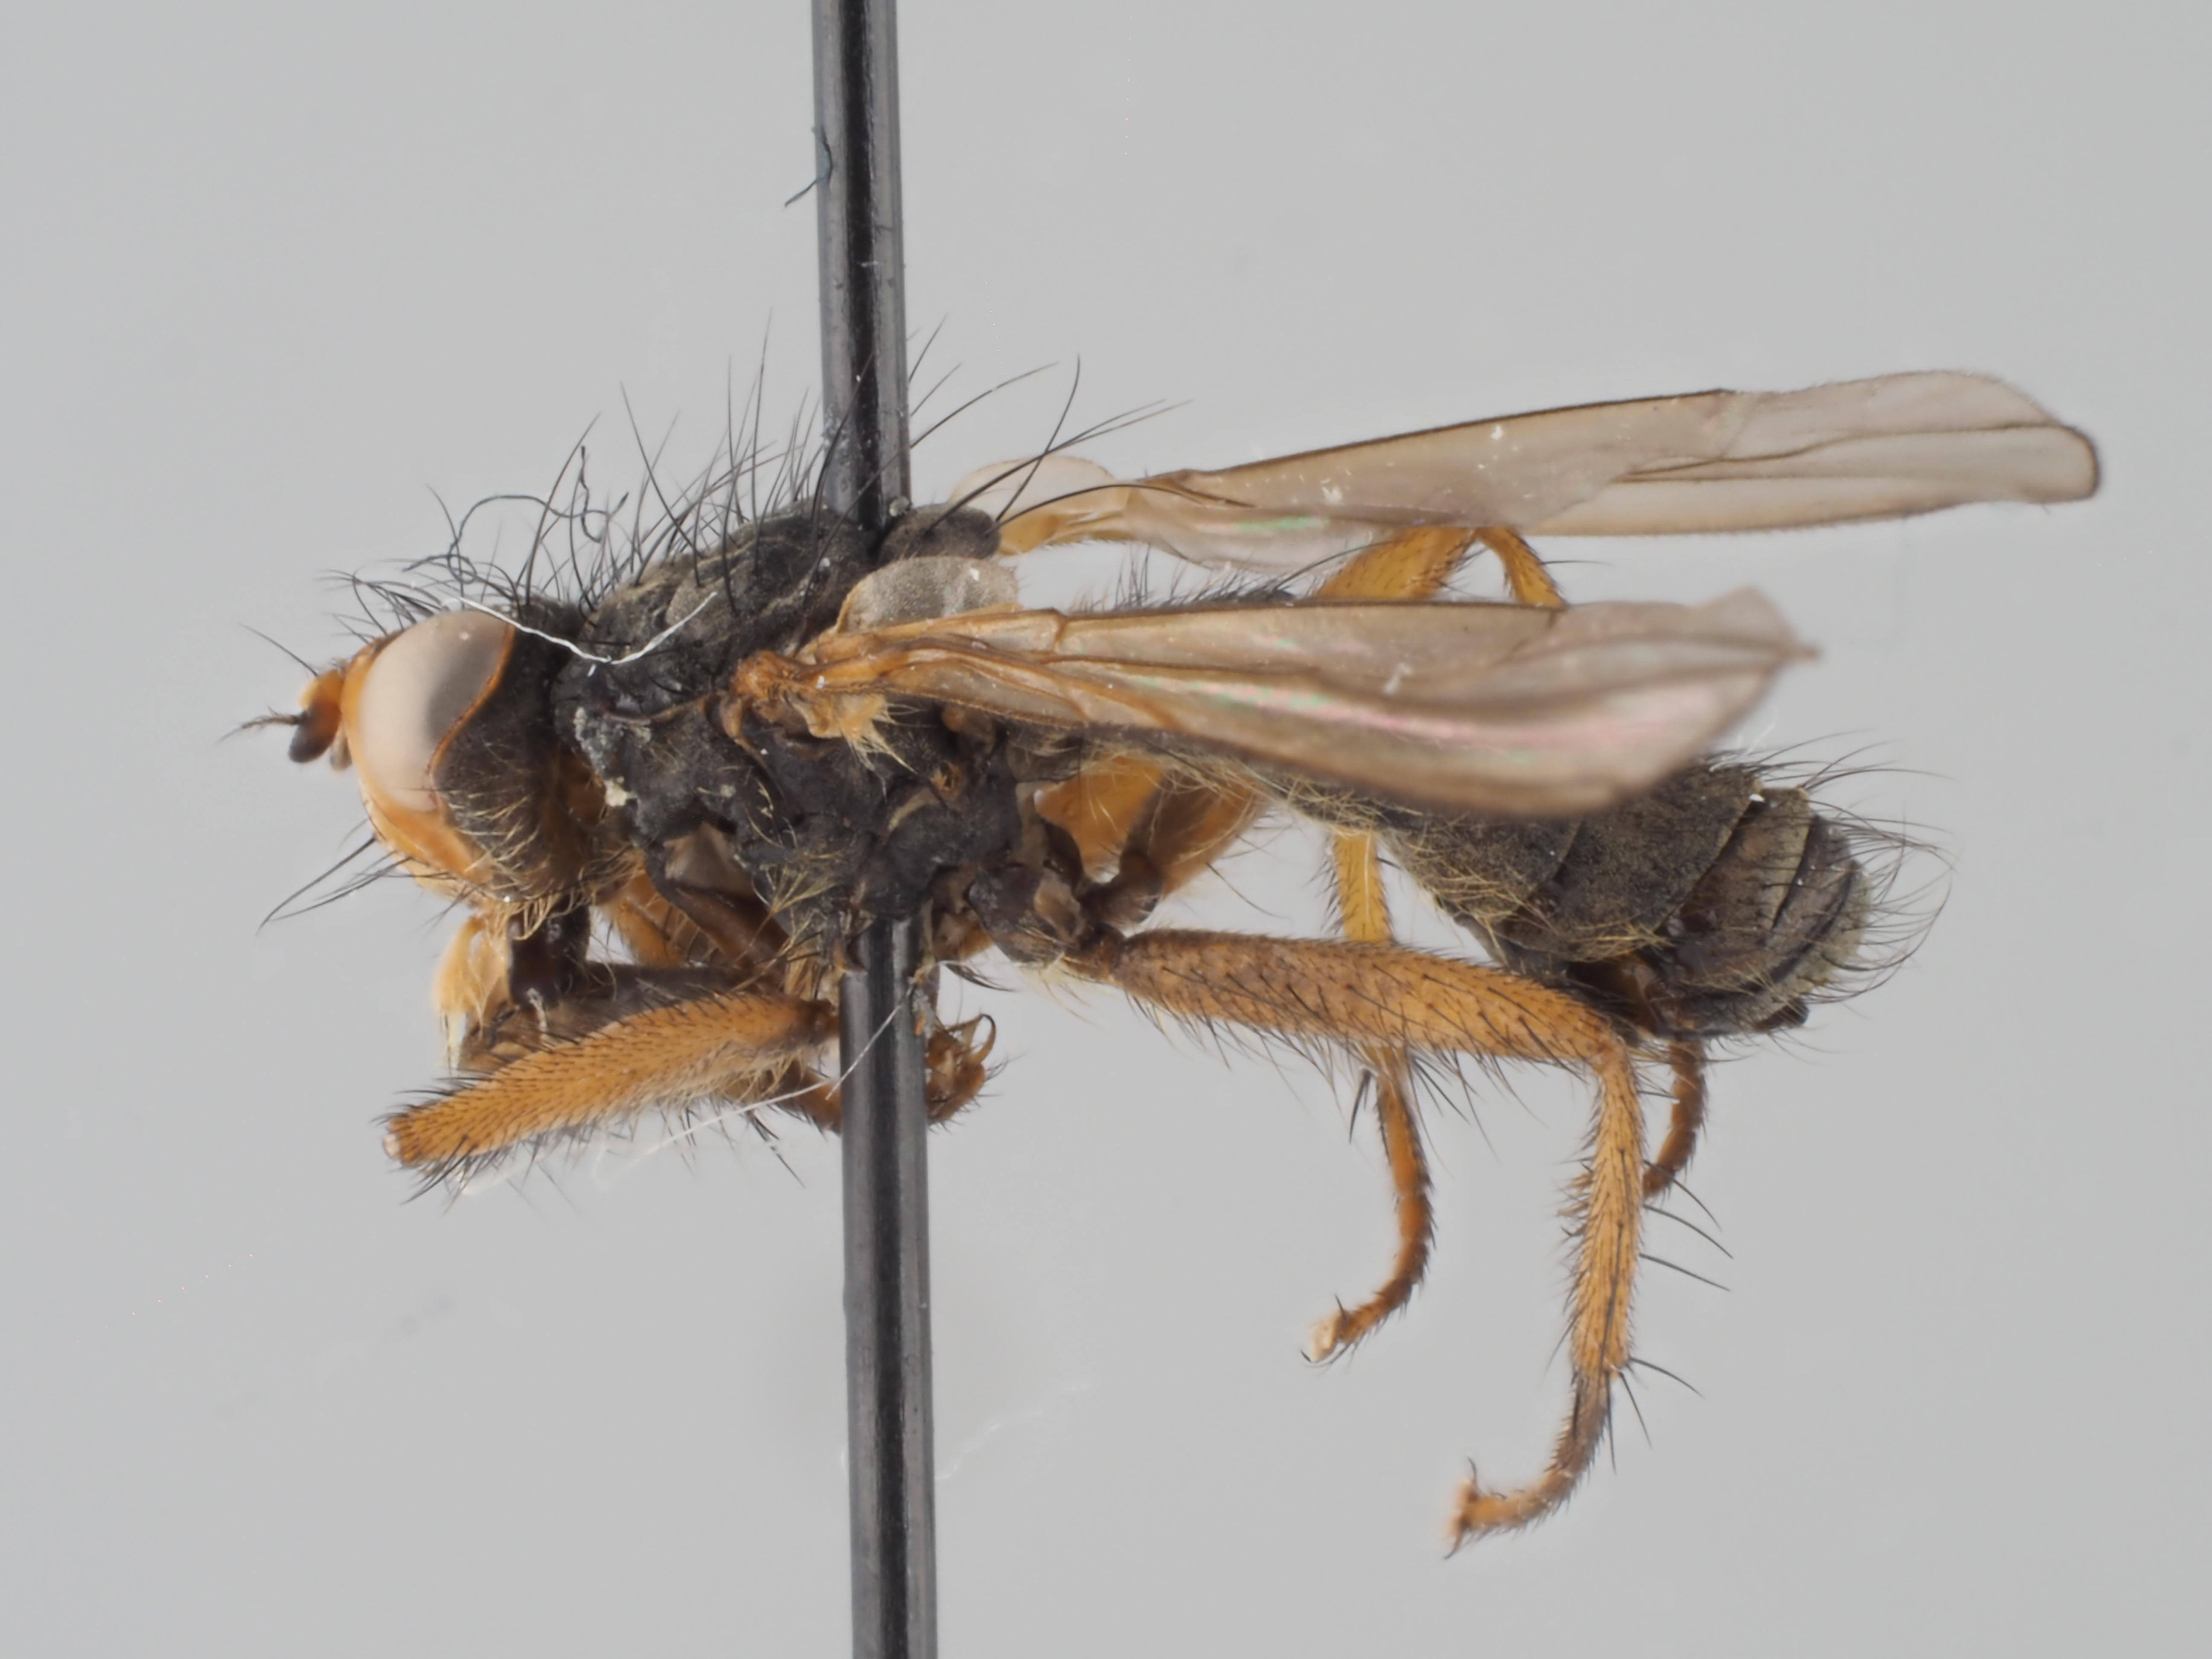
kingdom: Animalia
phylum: Arthropoda
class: Insecta
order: Diptera
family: Scathophagidae
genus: Cordilura
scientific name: Cordilura picticornis
